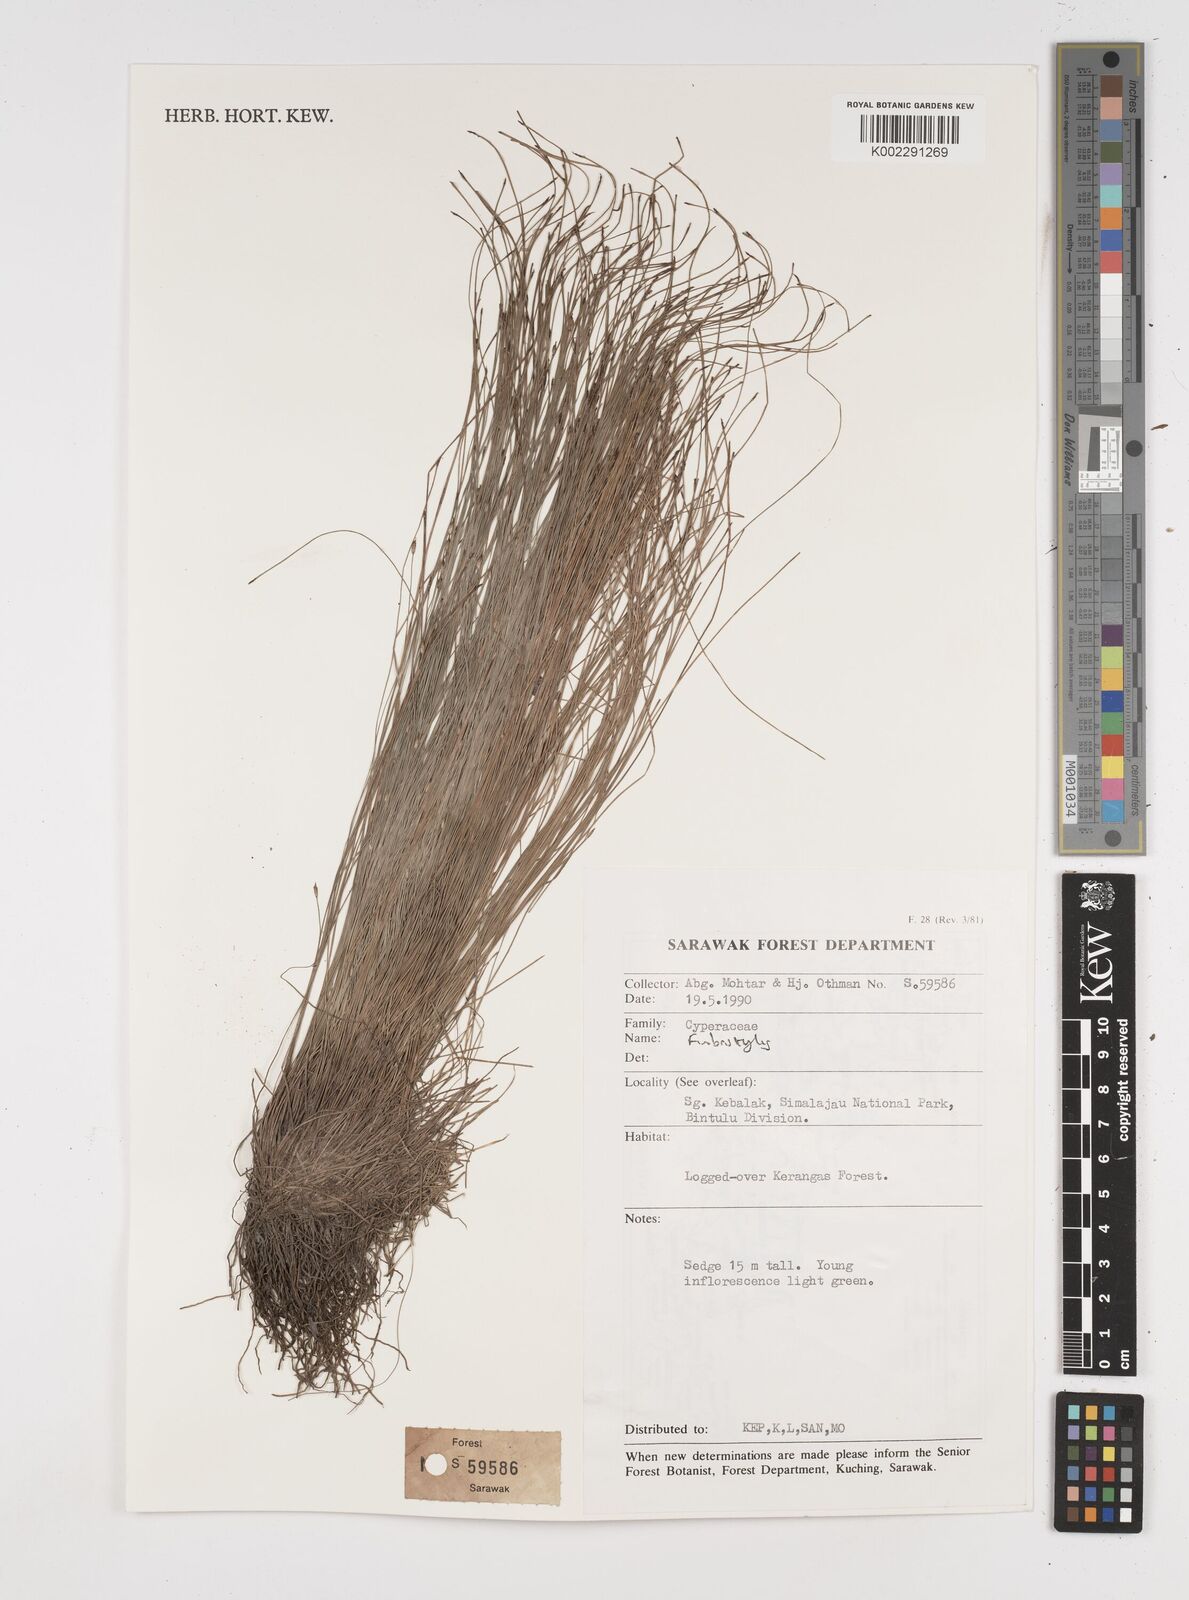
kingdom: Plantae
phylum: Tracheophyta
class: Liliopsida
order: Poales
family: Cyperaceae
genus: Fimbristylis
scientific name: Fimbristylis
